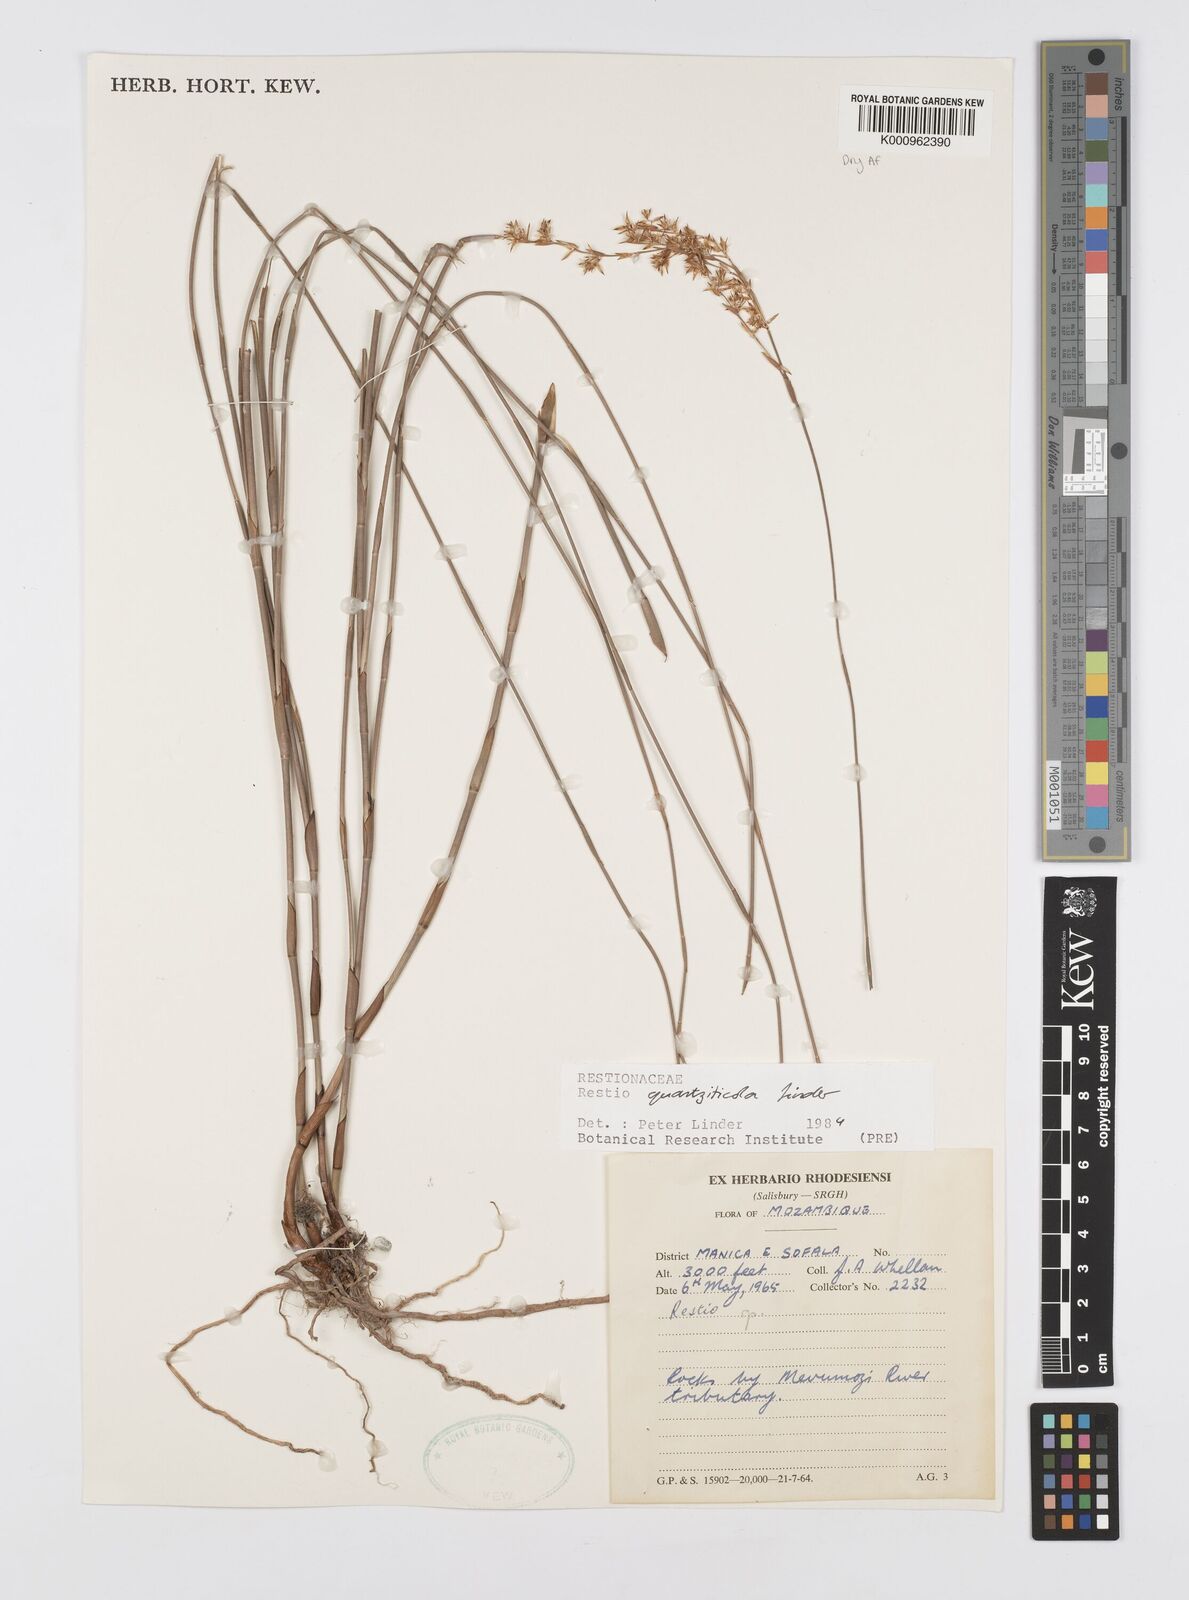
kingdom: Plantae
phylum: Tracheophyta
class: Liliopsida
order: Poales
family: Restionaceae
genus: Platycaulos
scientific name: Platycaulos quartziticola
